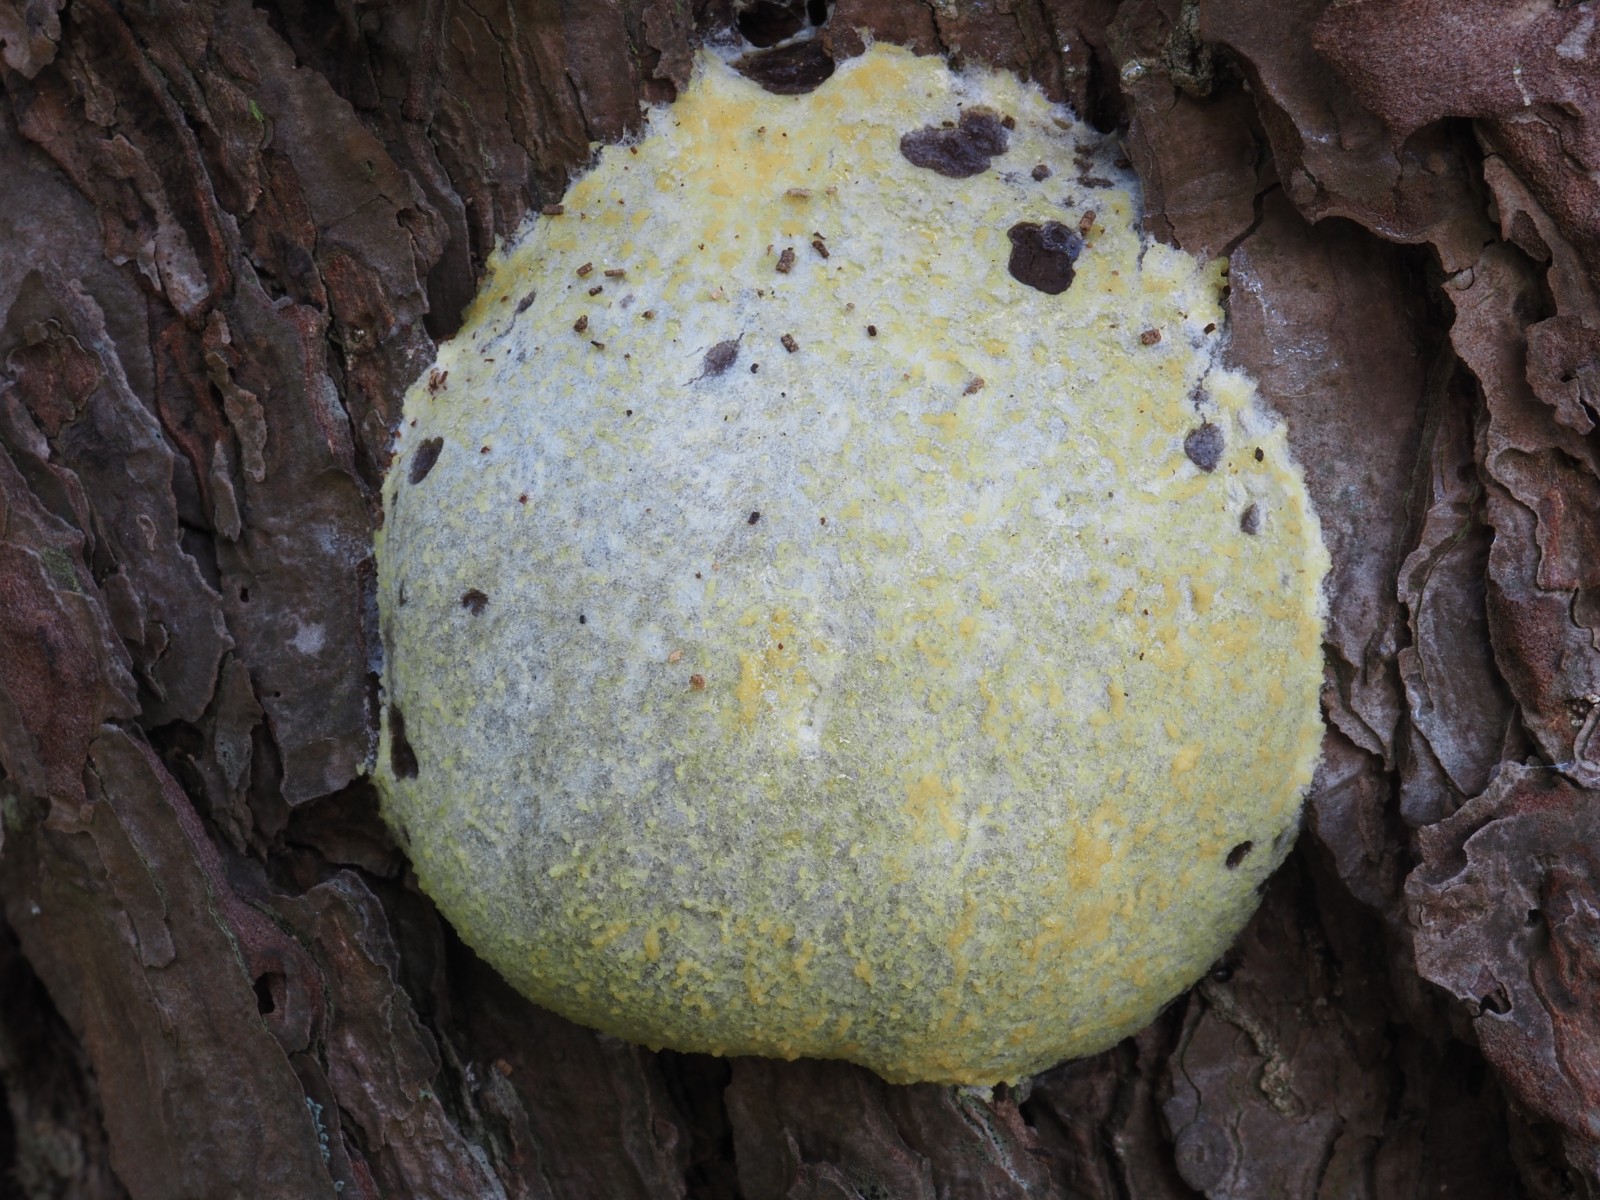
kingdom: Protozoa
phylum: Mycetozoa
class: Myxomycetes
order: Cribrariales
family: Tubiferaceae
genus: Reticularia
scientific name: Reticularia lycoperdon
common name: skinnende støvpude
